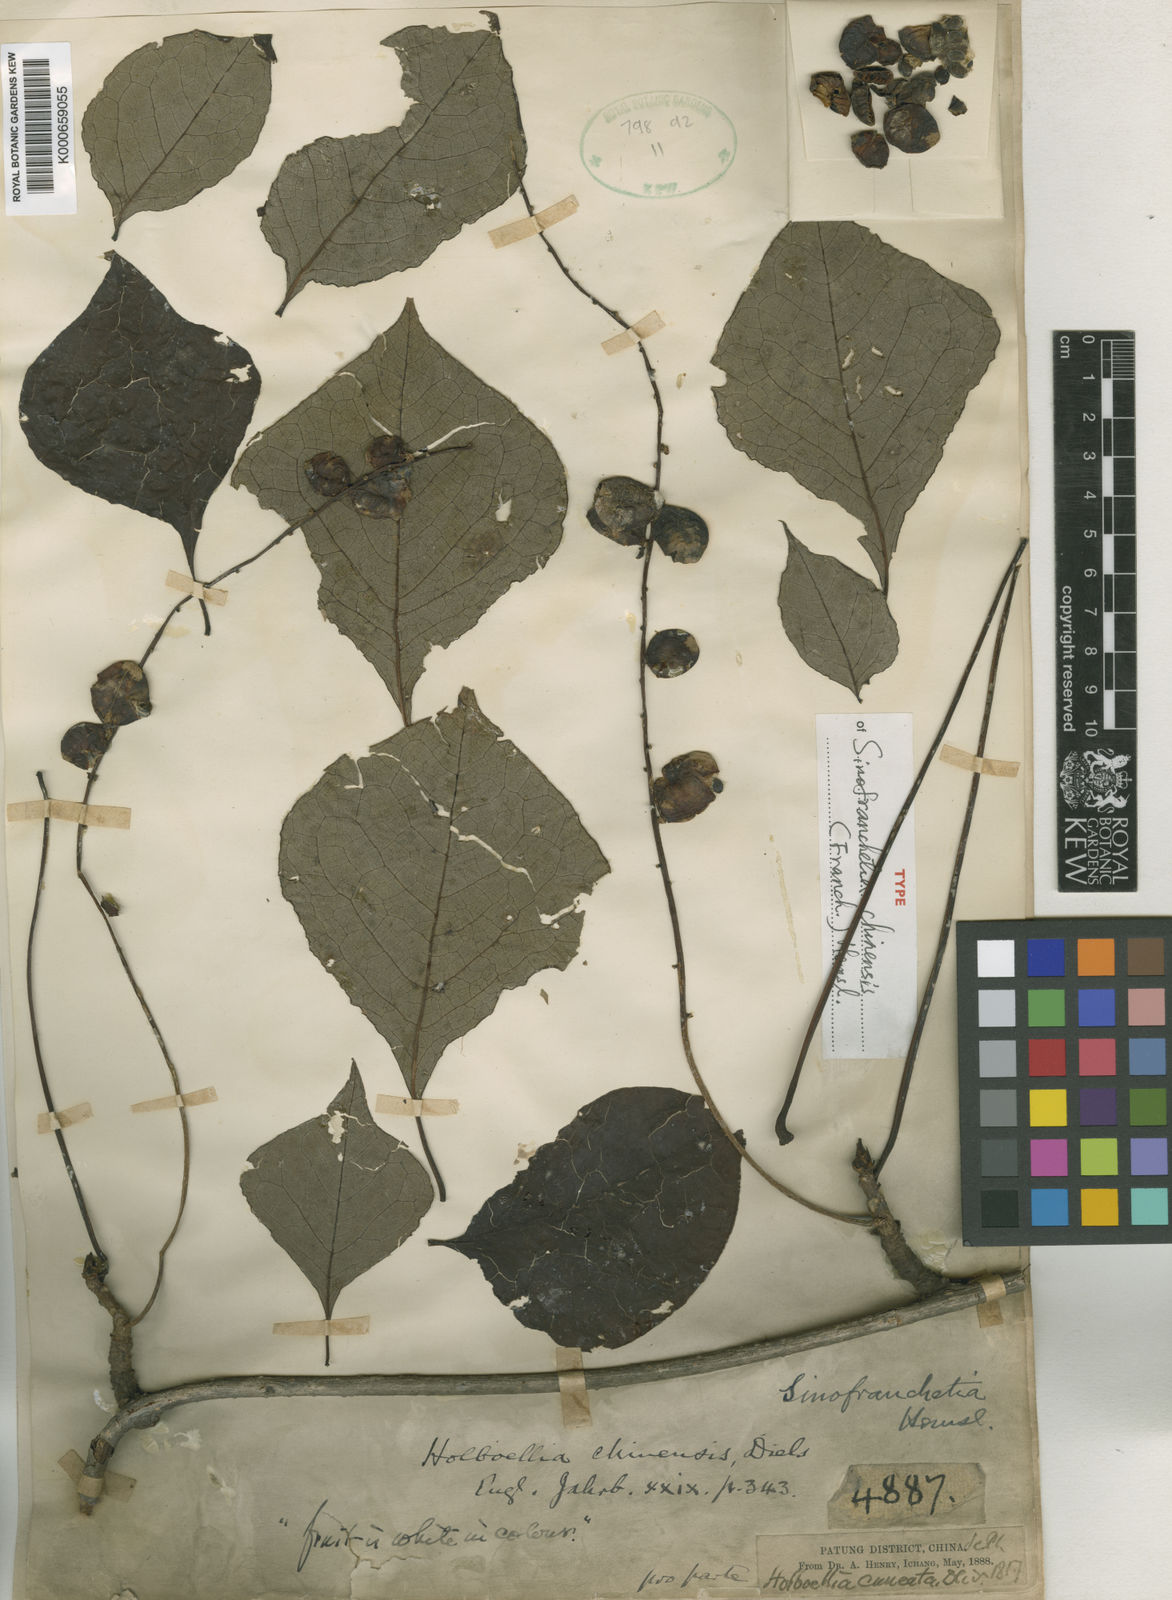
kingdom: Plantae
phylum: Tracheophyta
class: Magnoliopsida
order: Ranunculales
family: Lardizabalaceae
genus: Sinofranchetia
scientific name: Sinofranchetia chinensis
